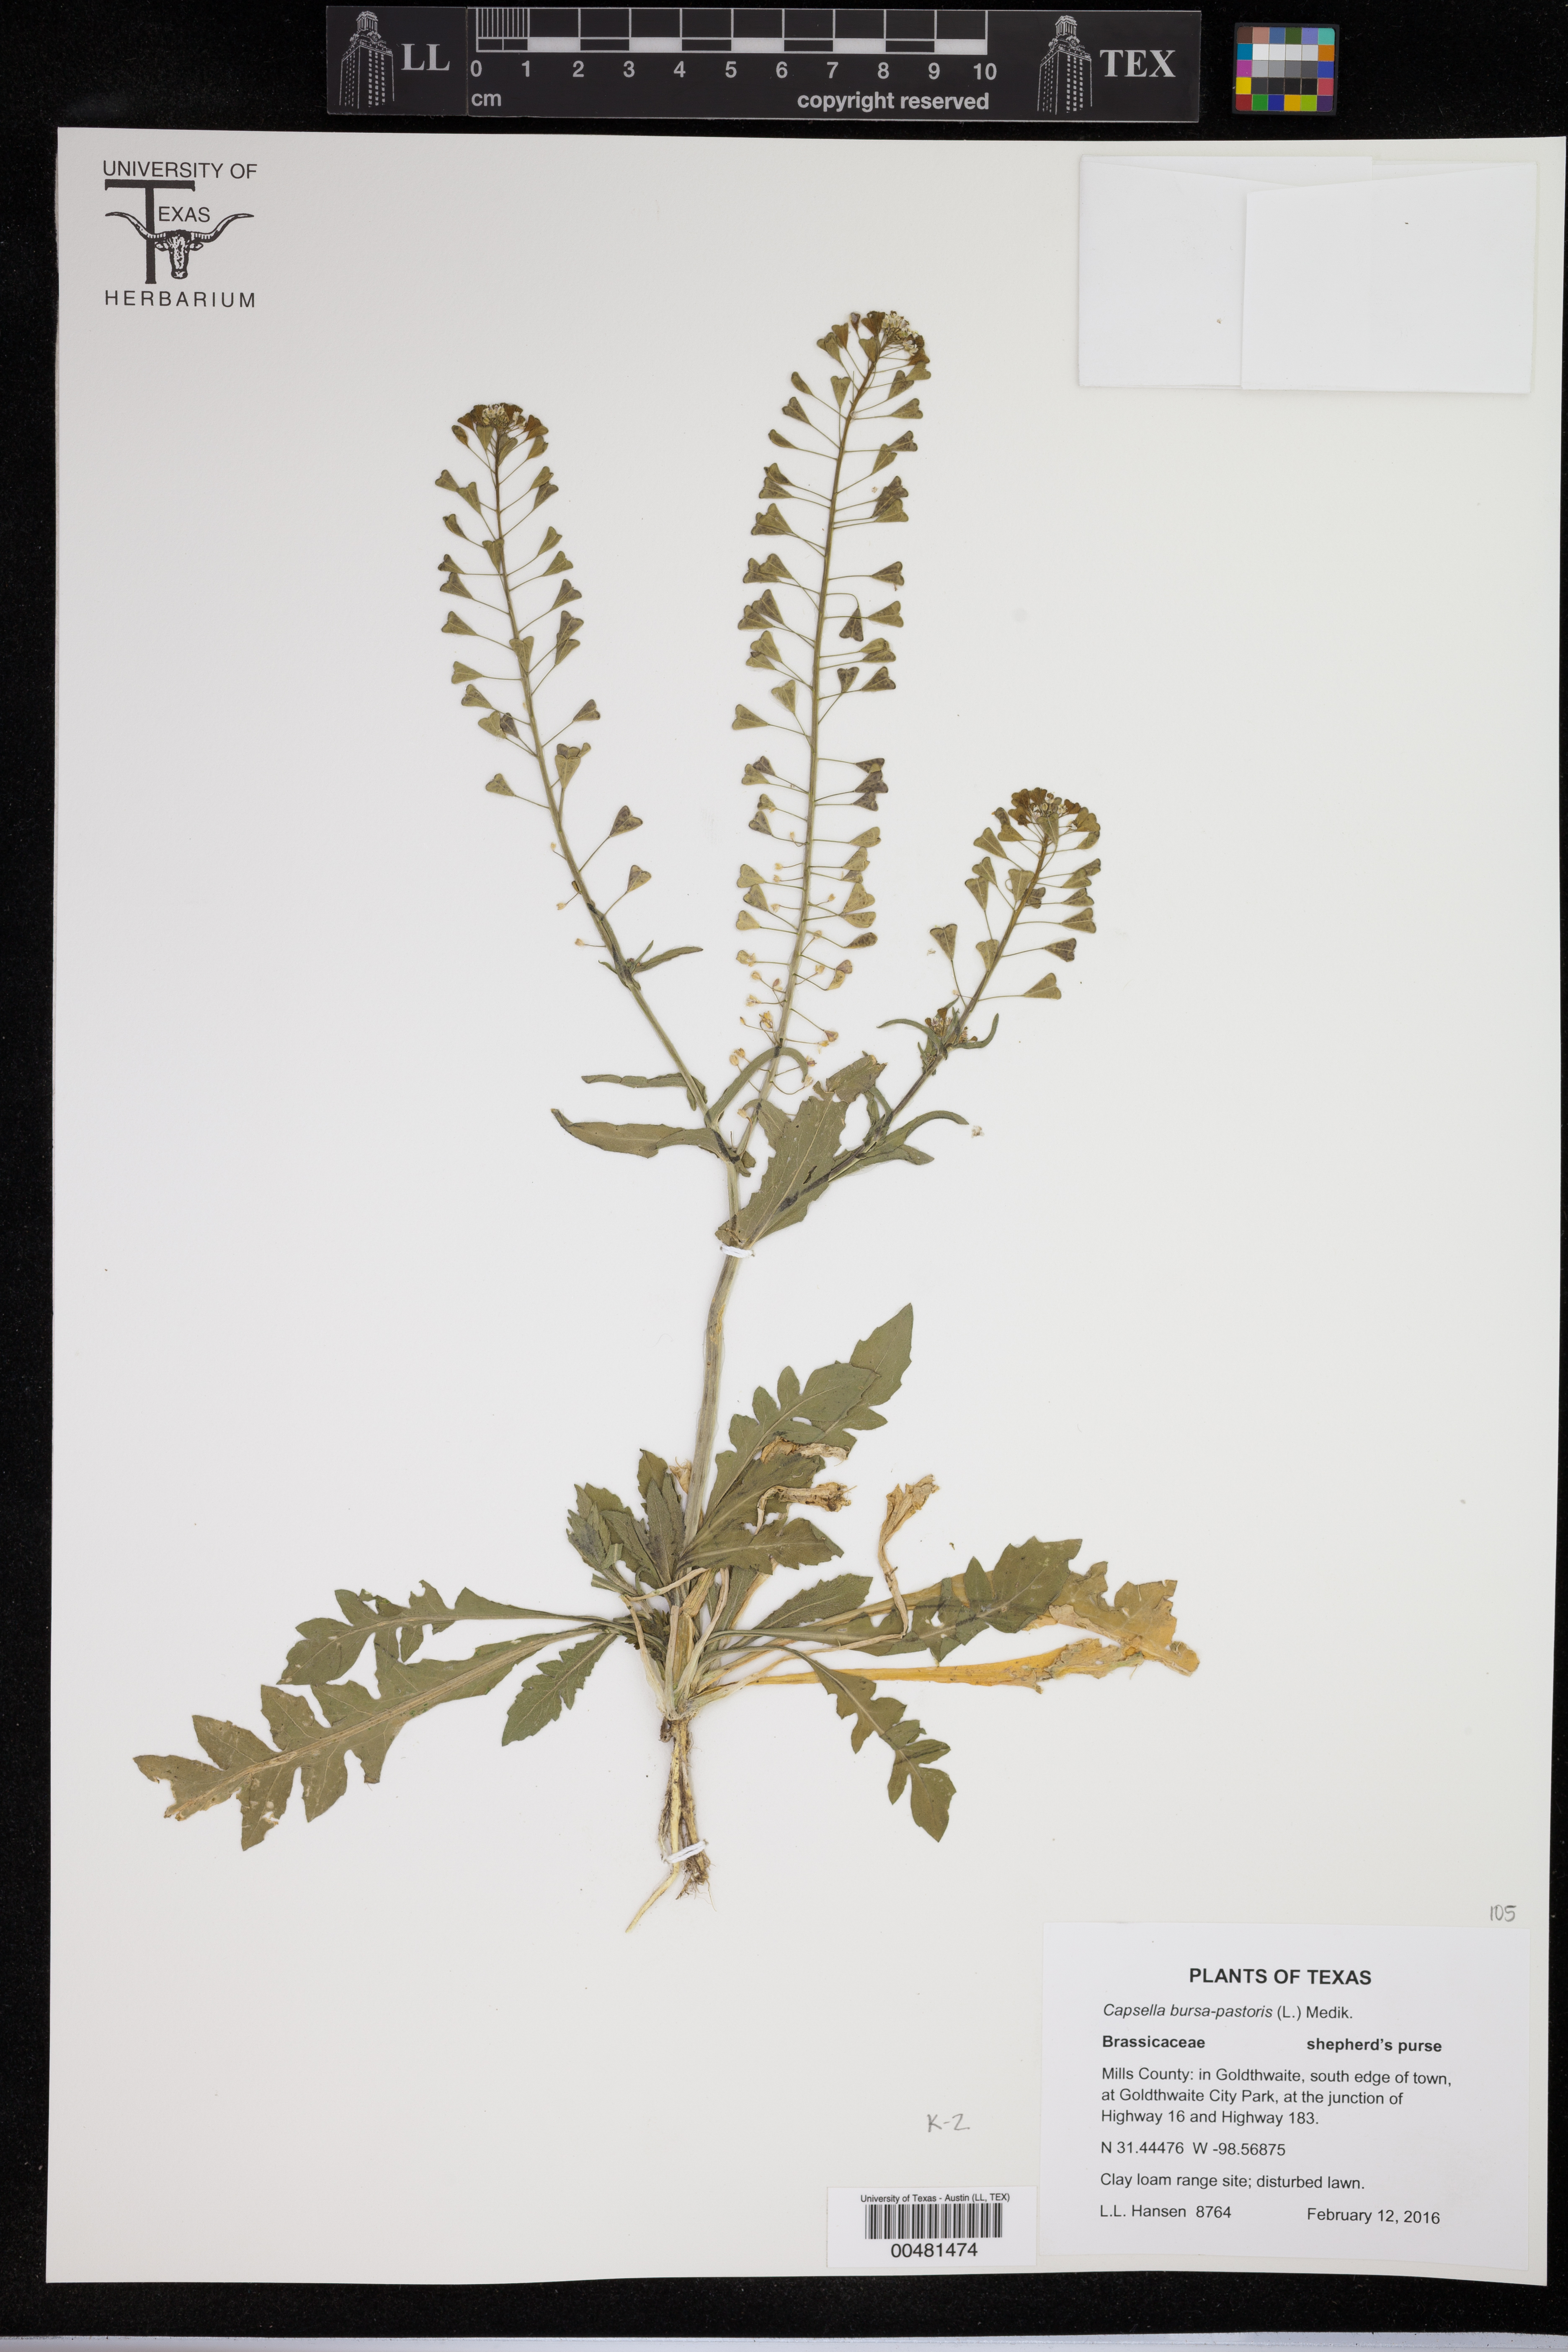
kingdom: Plantae
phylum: Tracheophyta
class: Magnoliopsida
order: Brassicales
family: Brassicaceae
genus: Capsella
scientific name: Capsella bursa-pastoris
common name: Shepherd's purse
